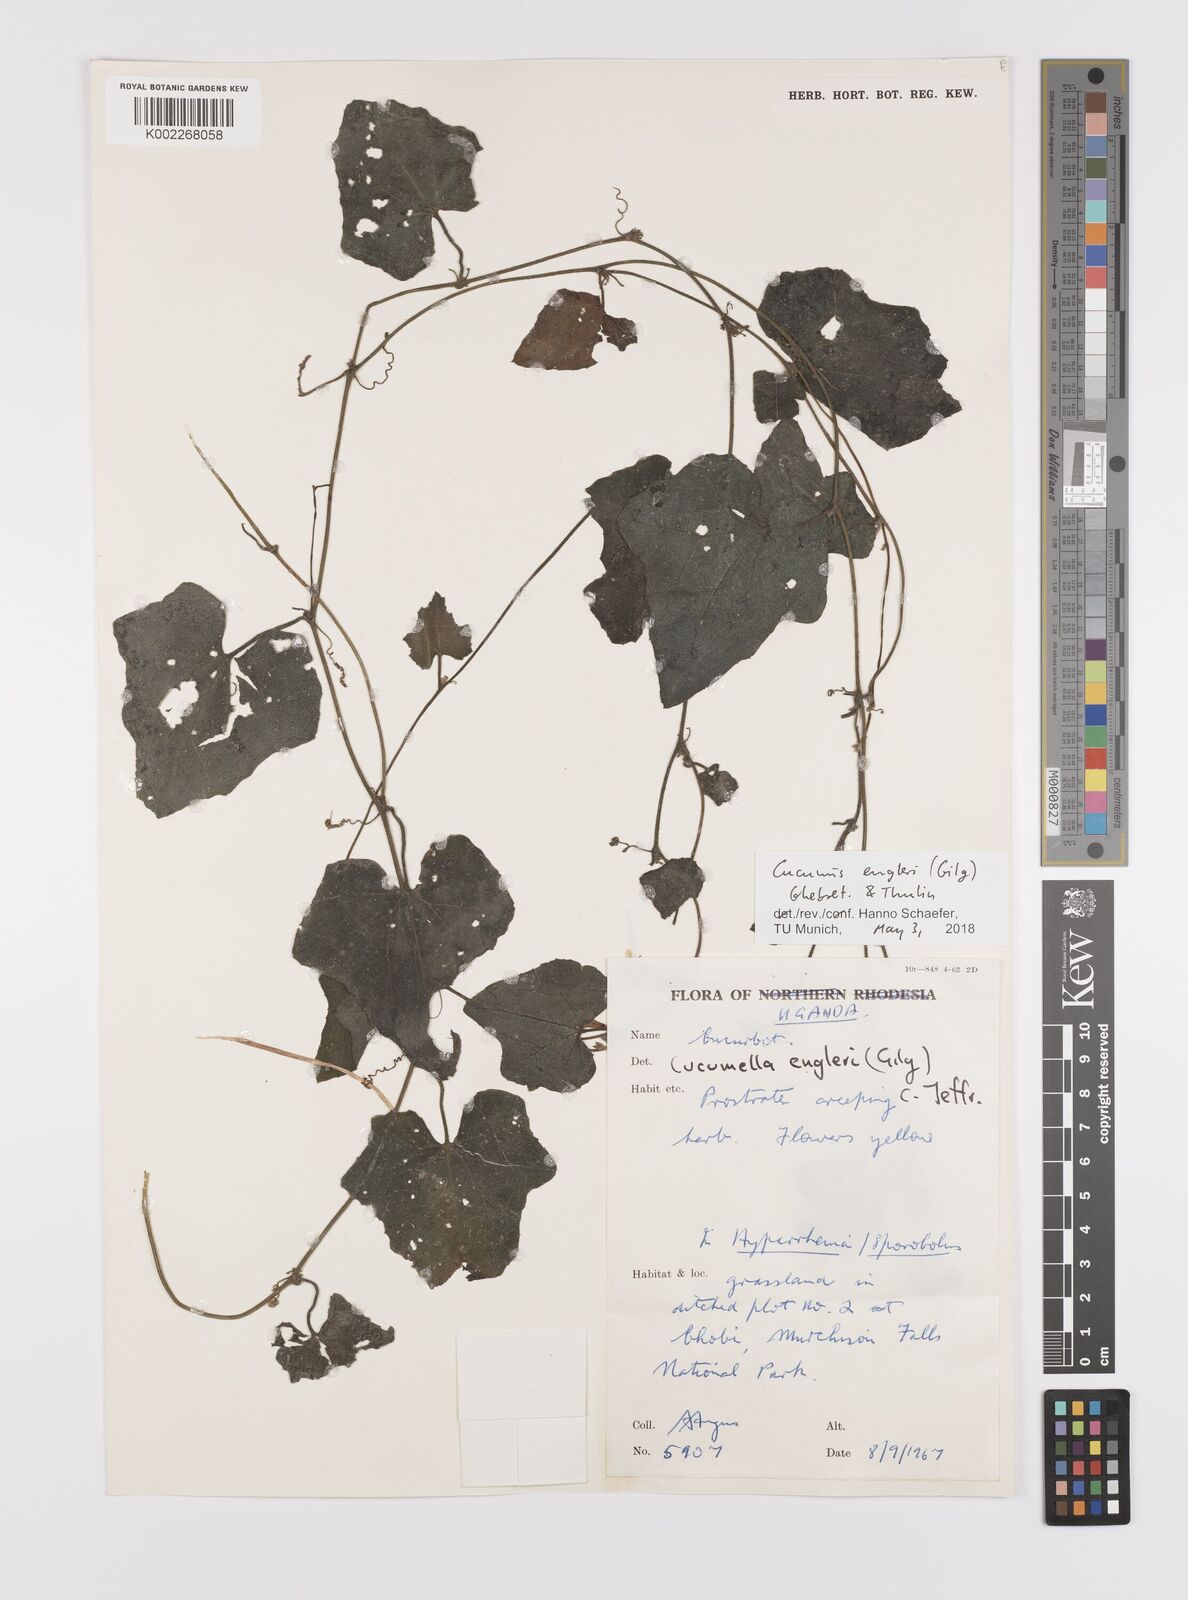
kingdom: Plantae
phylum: Tracheophyta
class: Magnoliopsida
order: Cucurbitales
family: Cucurbitaceae
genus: Cucumis
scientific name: Cucumis engleri
